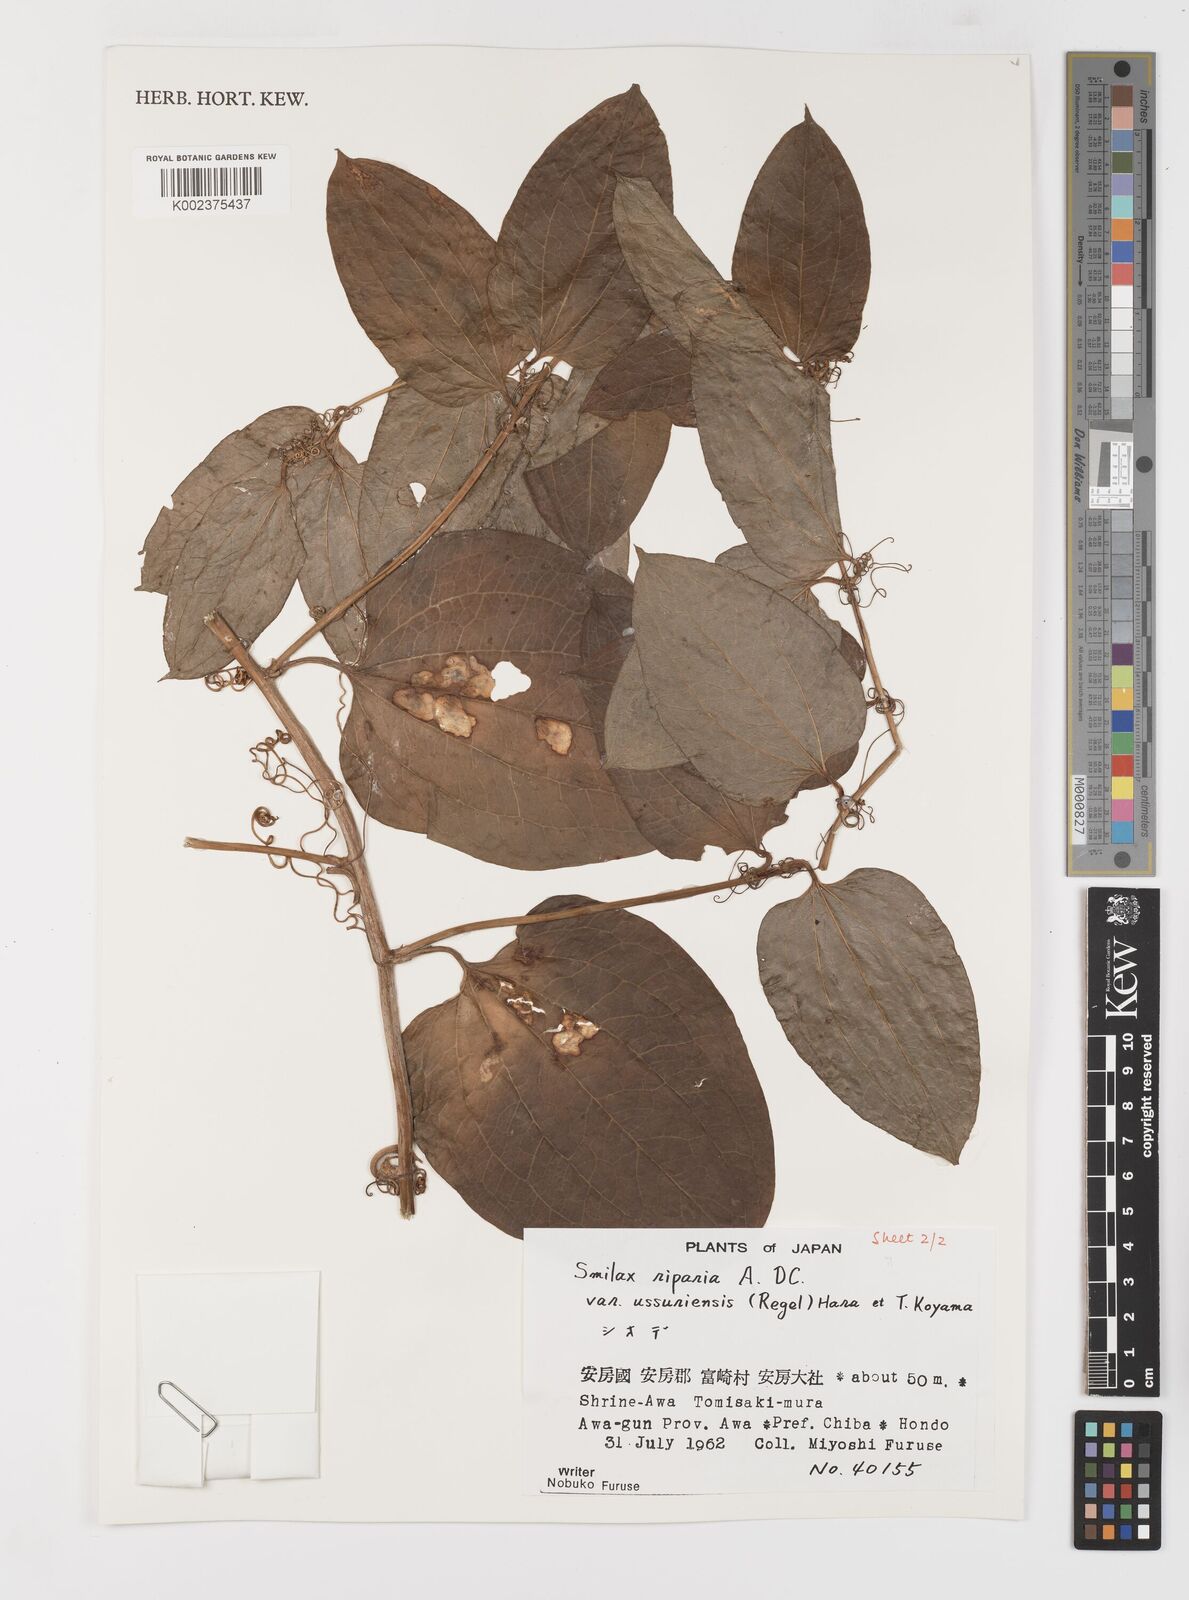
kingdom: Plantae
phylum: Tracheophyta
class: Liliopsida
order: Liliales
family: Smilacaceae
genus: Smilax
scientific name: Smilax riparia
